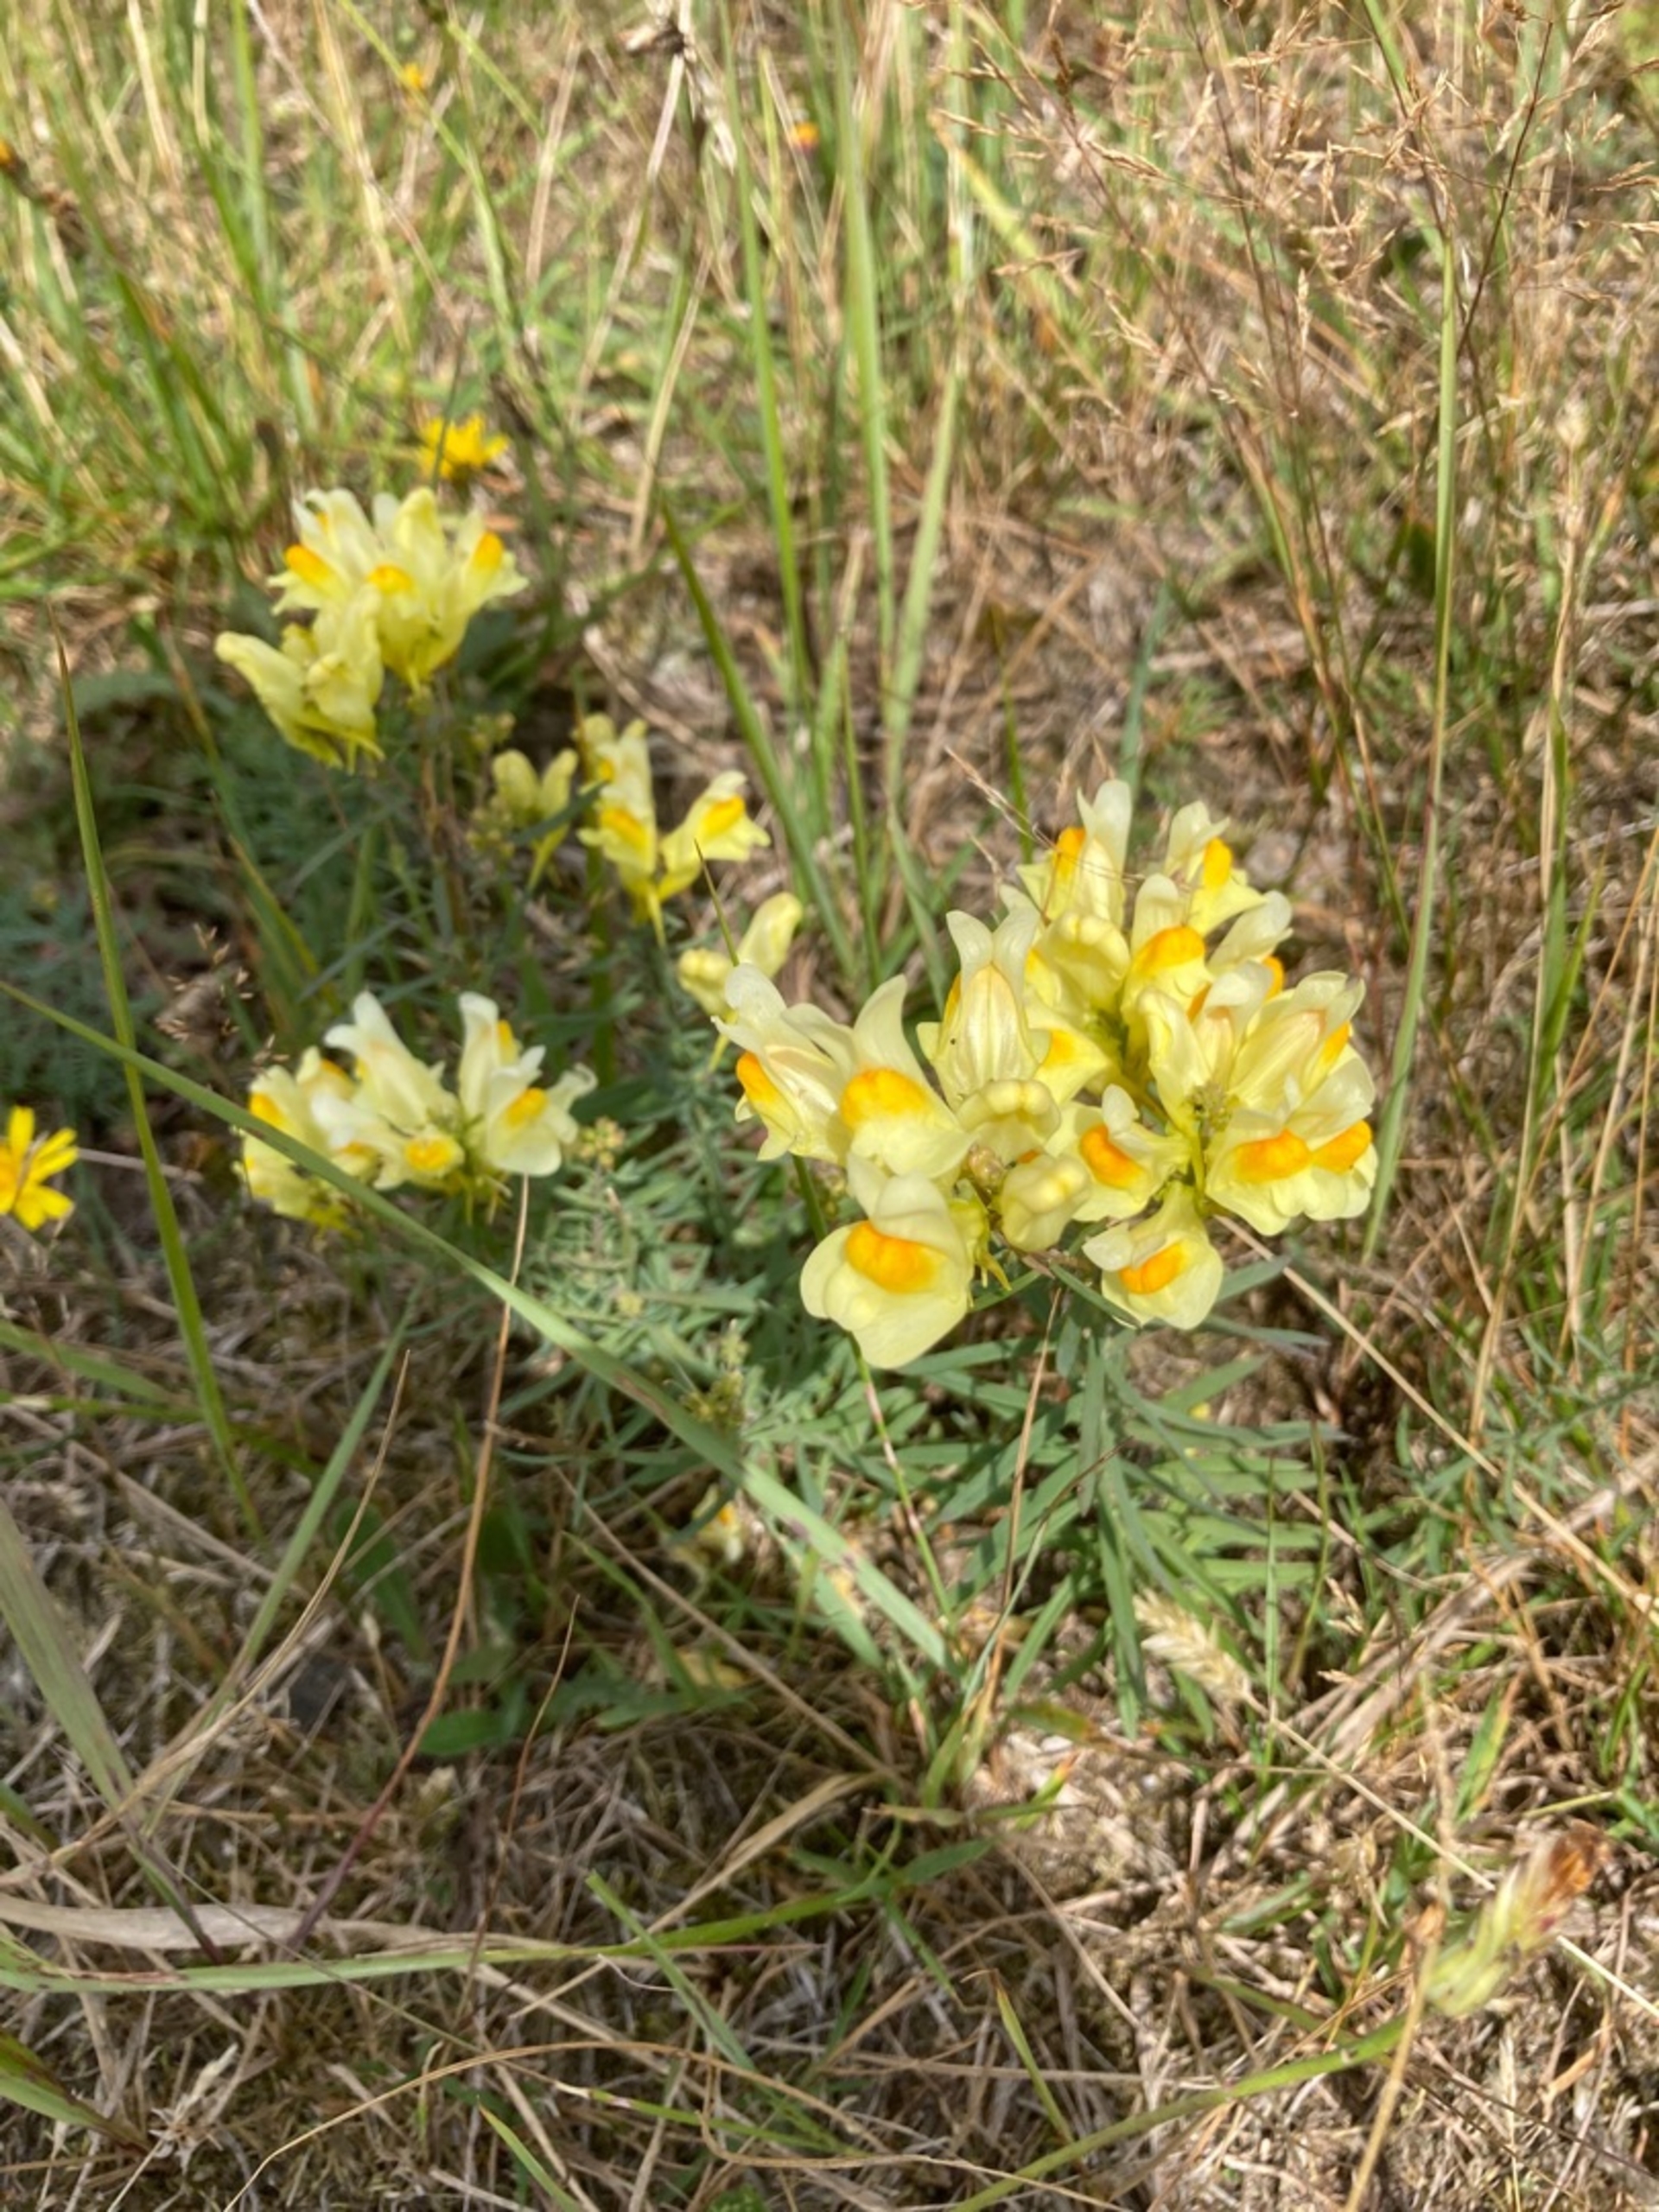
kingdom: Plantae
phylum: Tracheophyta
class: Magnoliopsida
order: Lamiales
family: Plantaginaceae
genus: Linaria
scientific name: Linaria vulgaris
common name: Almindelig torskemund
